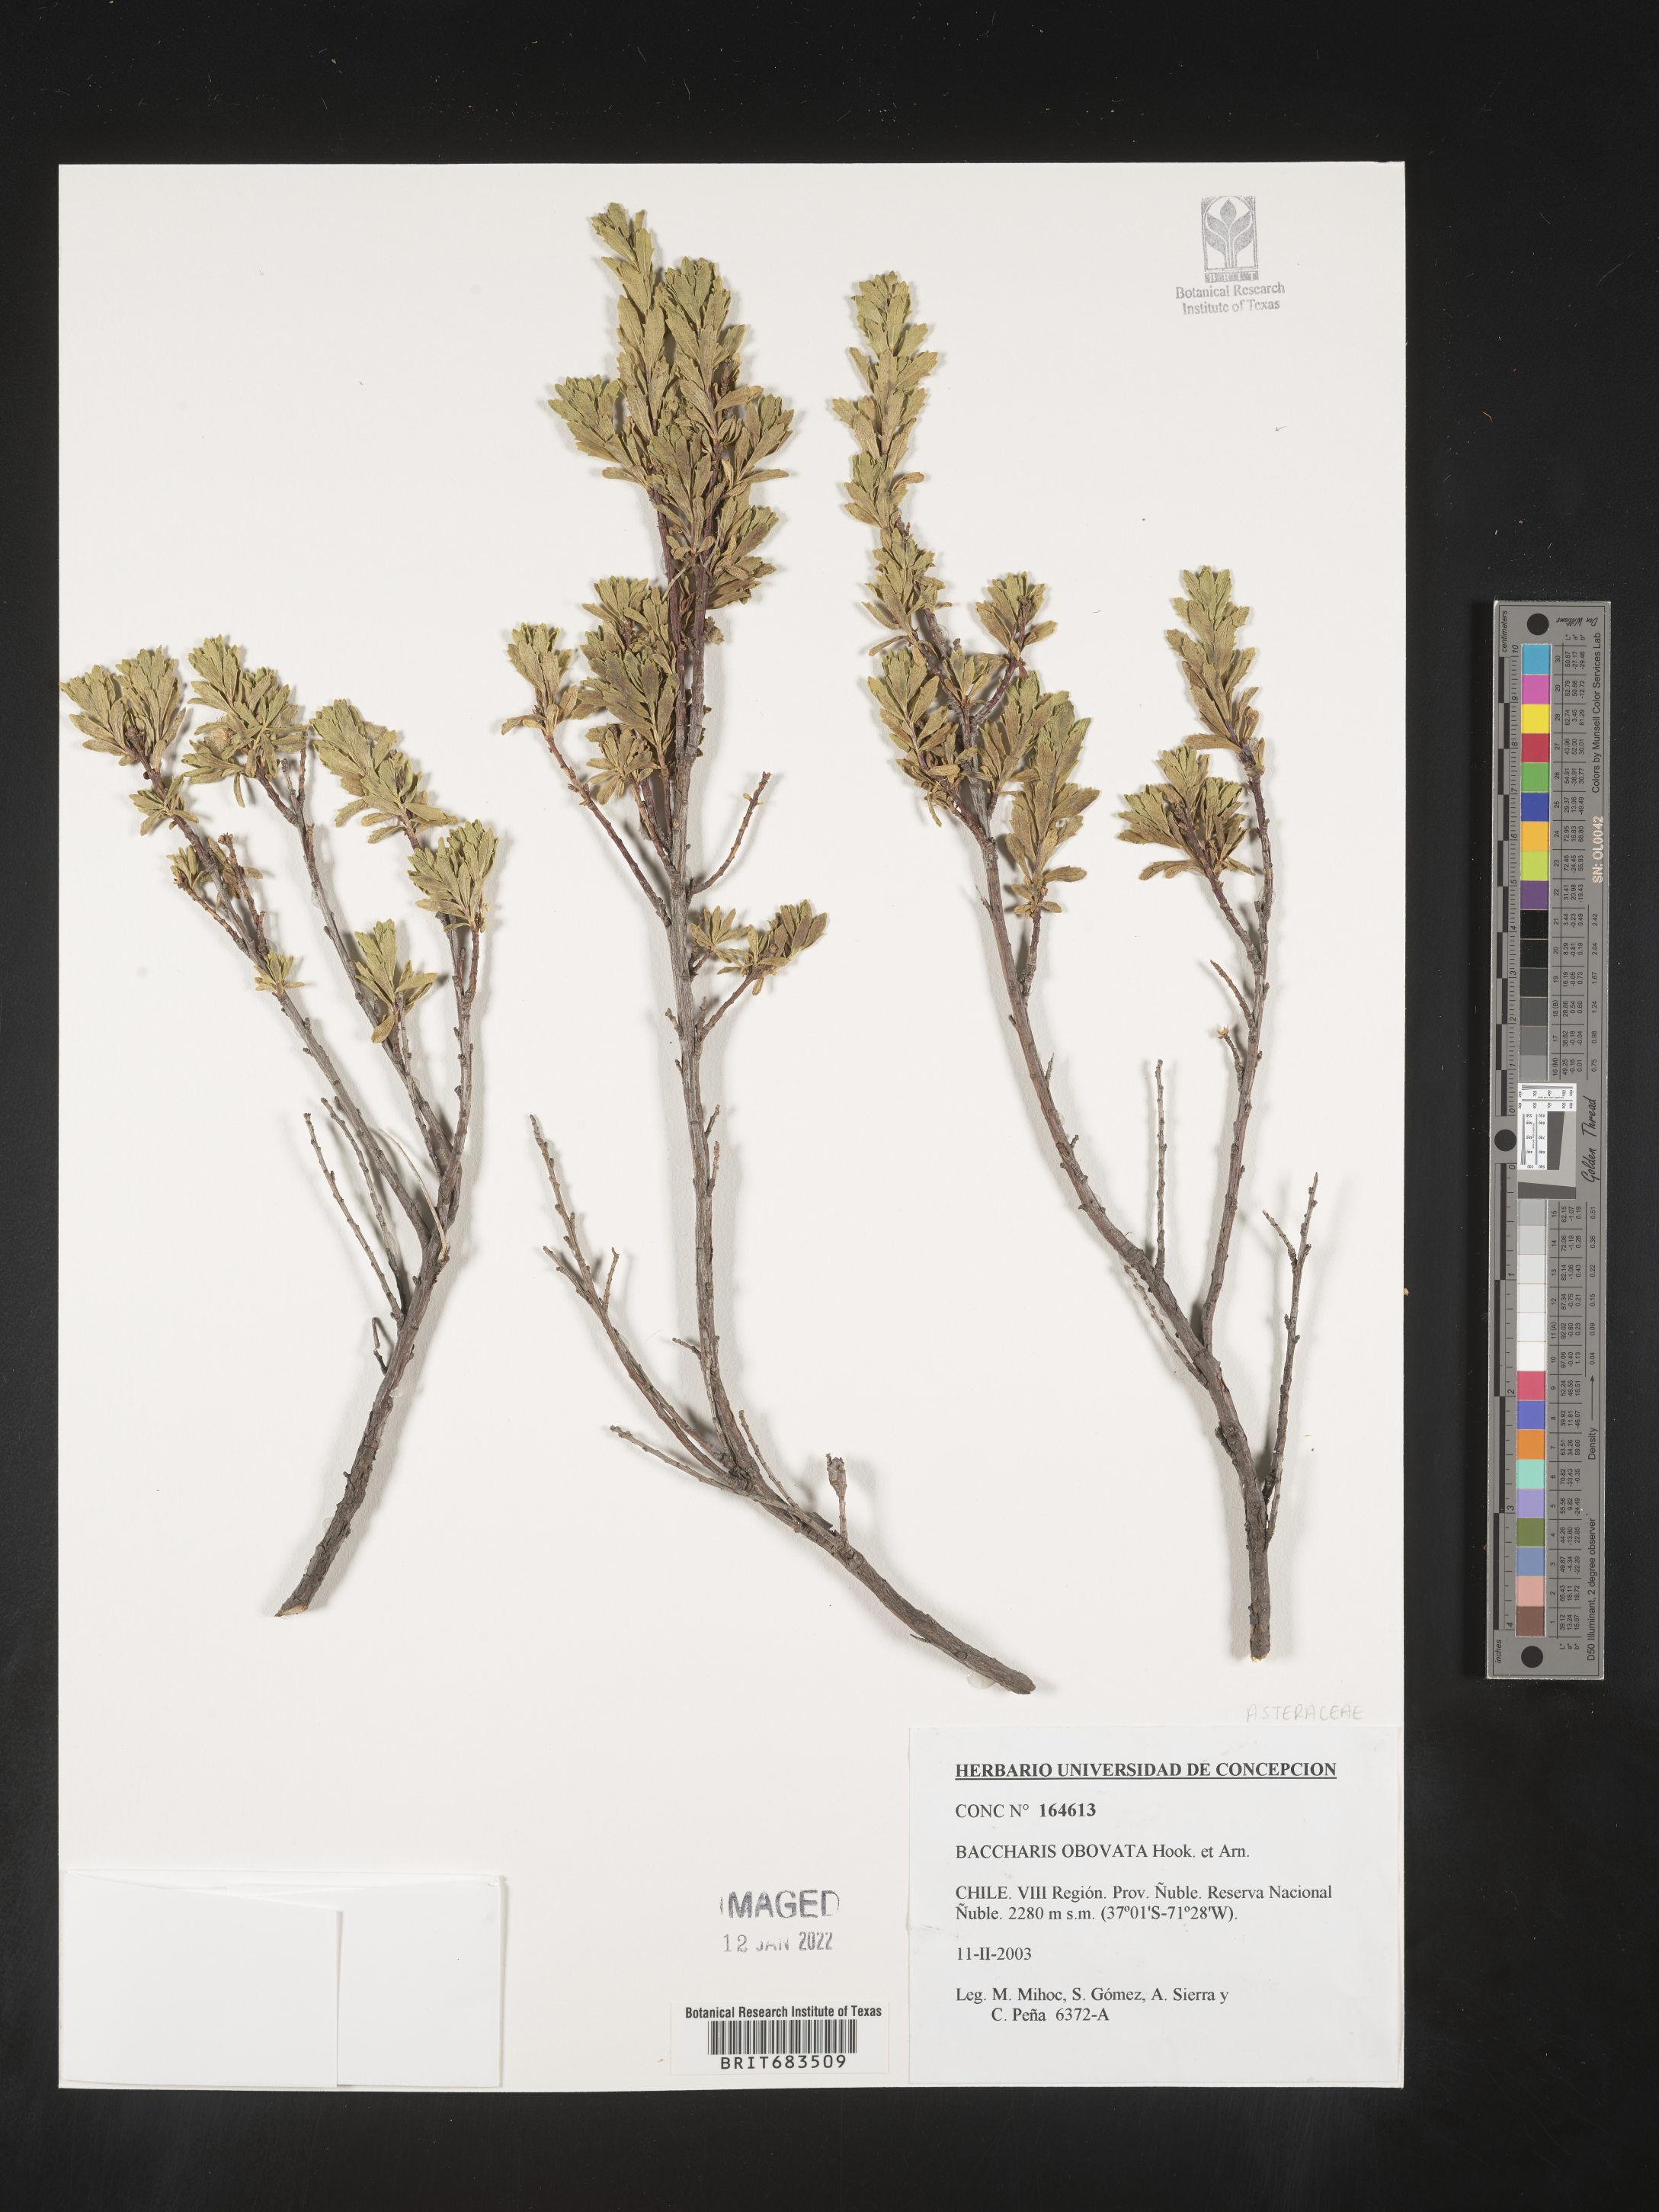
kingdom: Plantae
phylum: Tracheophyta
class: Magnoliopsida
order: Asterales
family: Asteraceae
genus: Baccharis
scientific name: Baccharis
